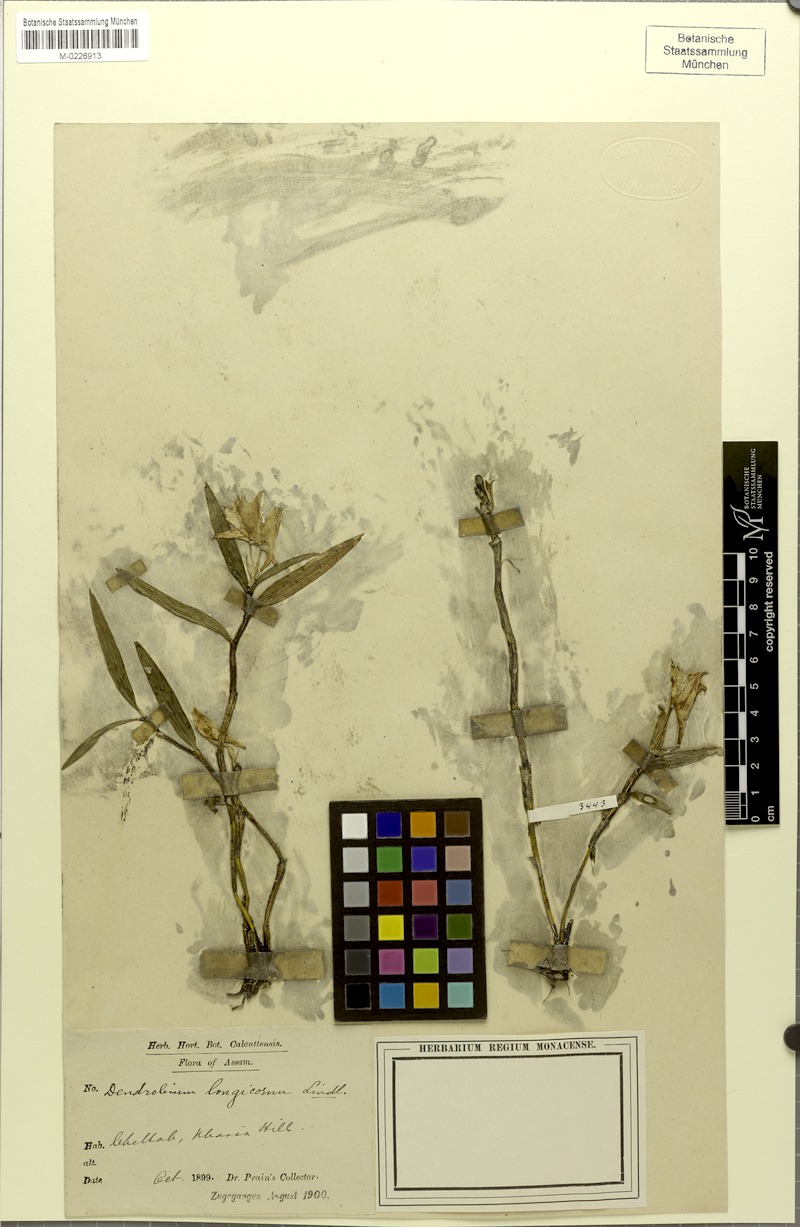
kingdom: Plantae
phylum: Tracheophyta
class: Liliopsida
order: Asparagales
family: Orchidaceae
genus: Dendrobium
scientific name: Dendrobium longicornu
